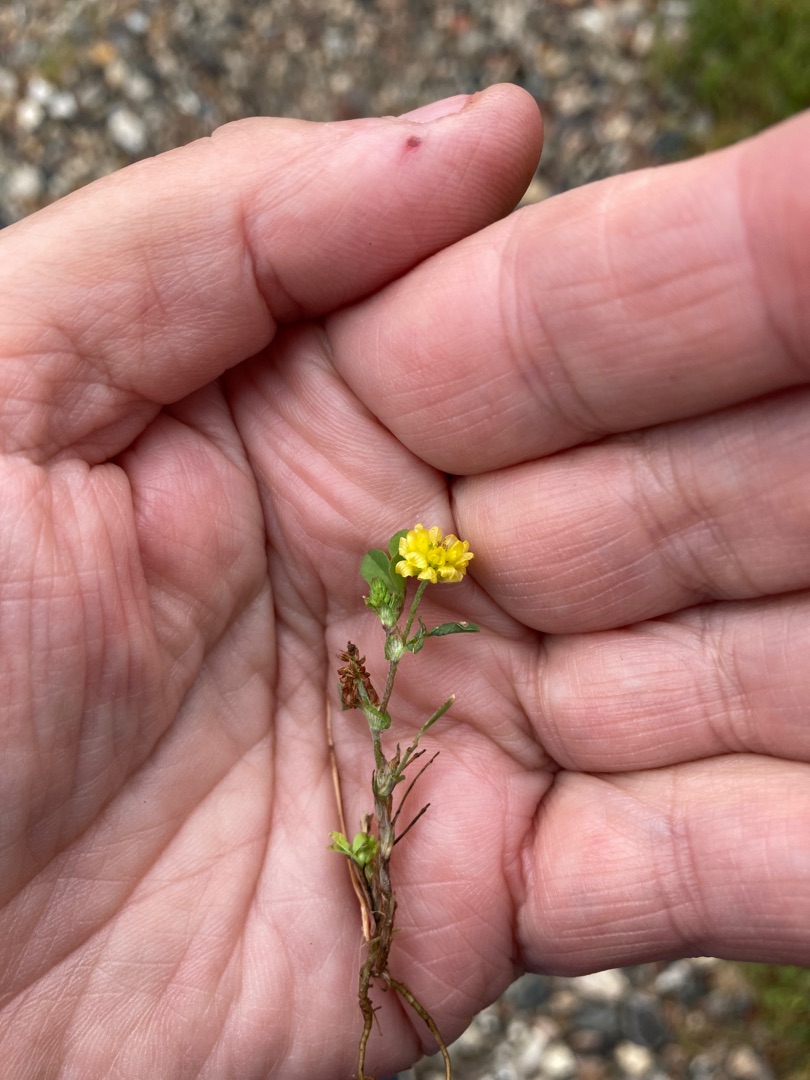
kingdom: Plantae
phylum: Tracheophyta
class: Magnoliopsida
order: Fabales
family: Fabaceae
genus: Trifolium
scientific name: Trifolium campestre
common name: Gul kløver
